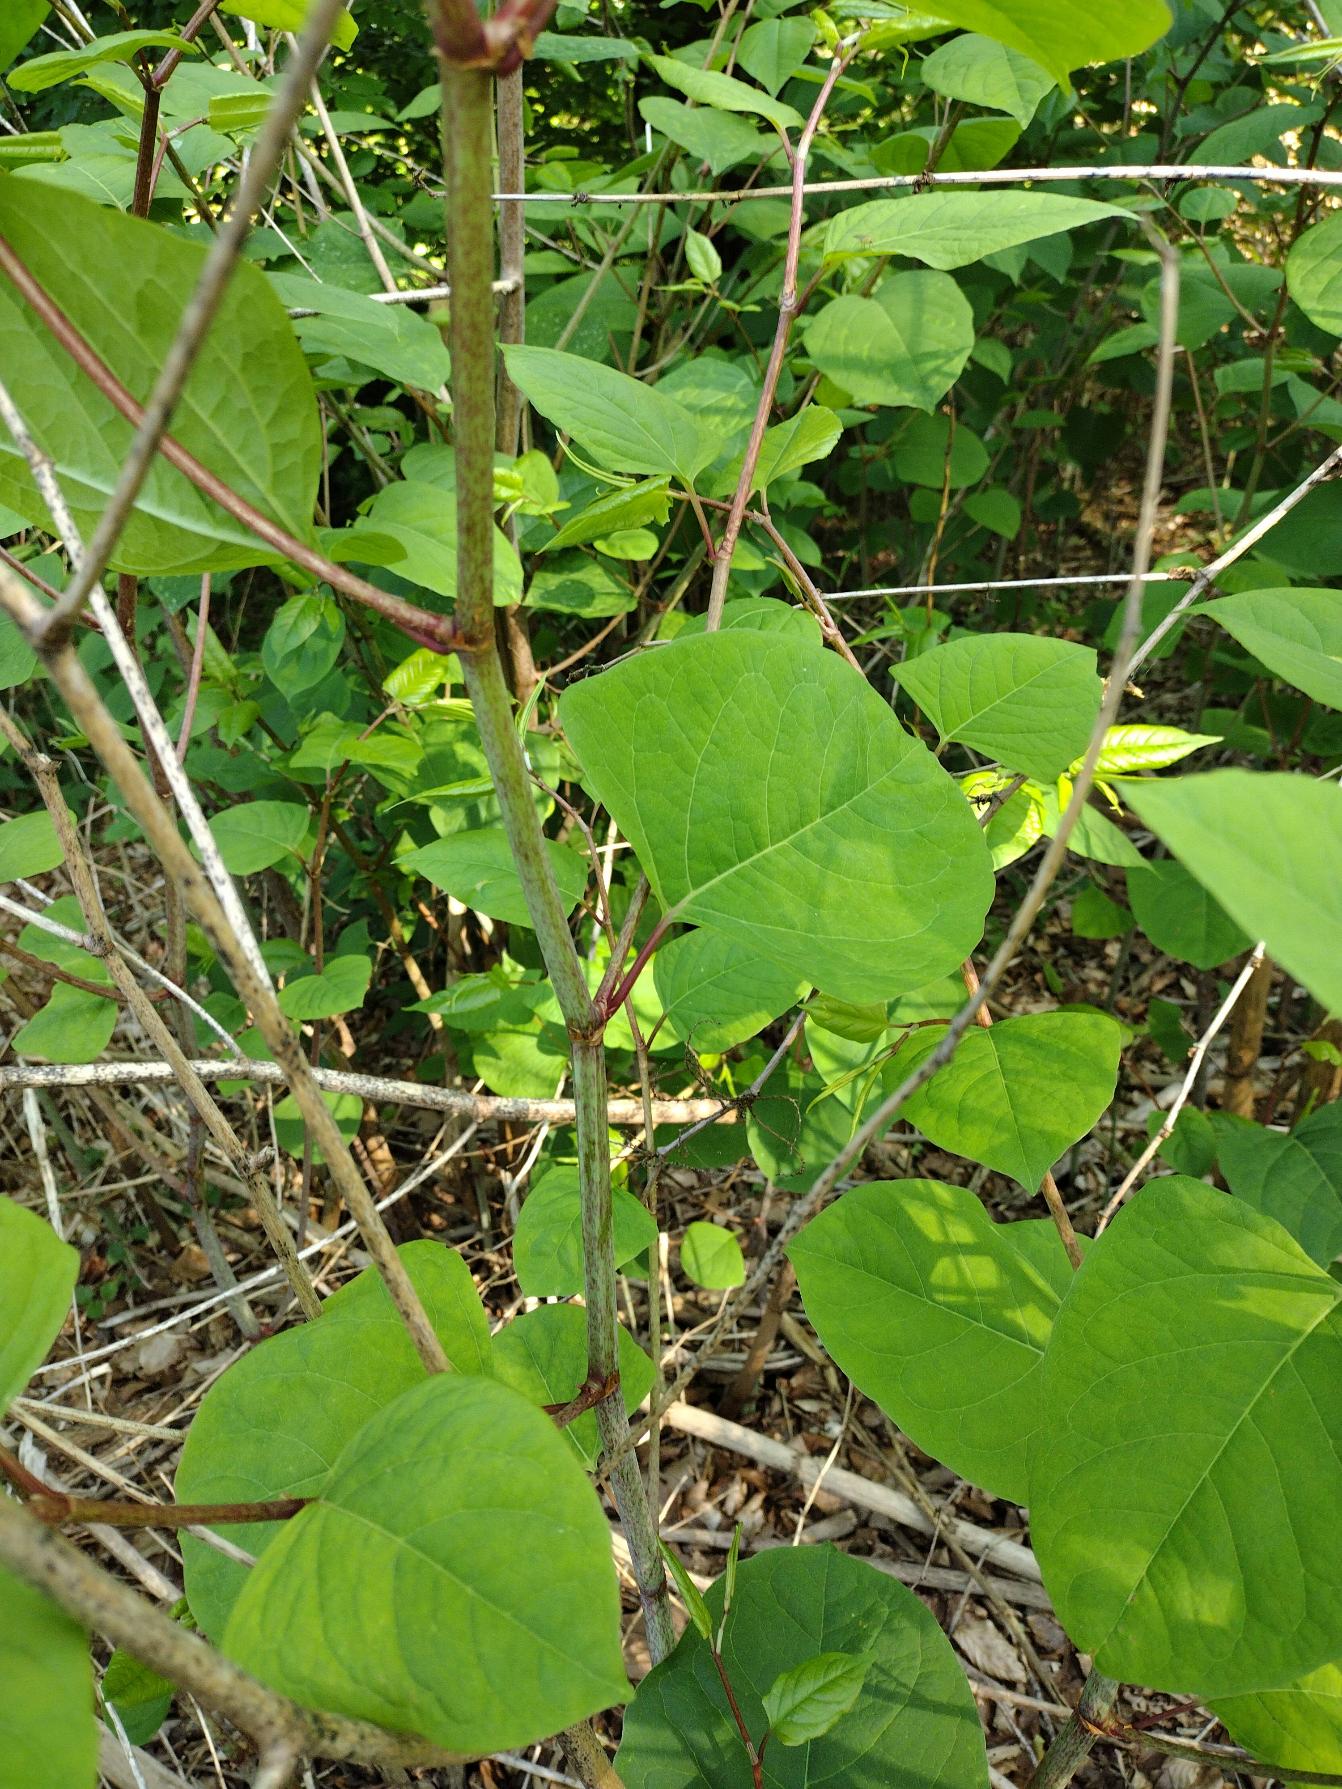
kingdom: Plantae
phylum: Tracheophyta
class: Magnoliopsida
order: Caryophyllales
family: Polygonaceae
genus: Reynoutria
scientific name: Reynoutria japonica
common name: Japan-pileurt
